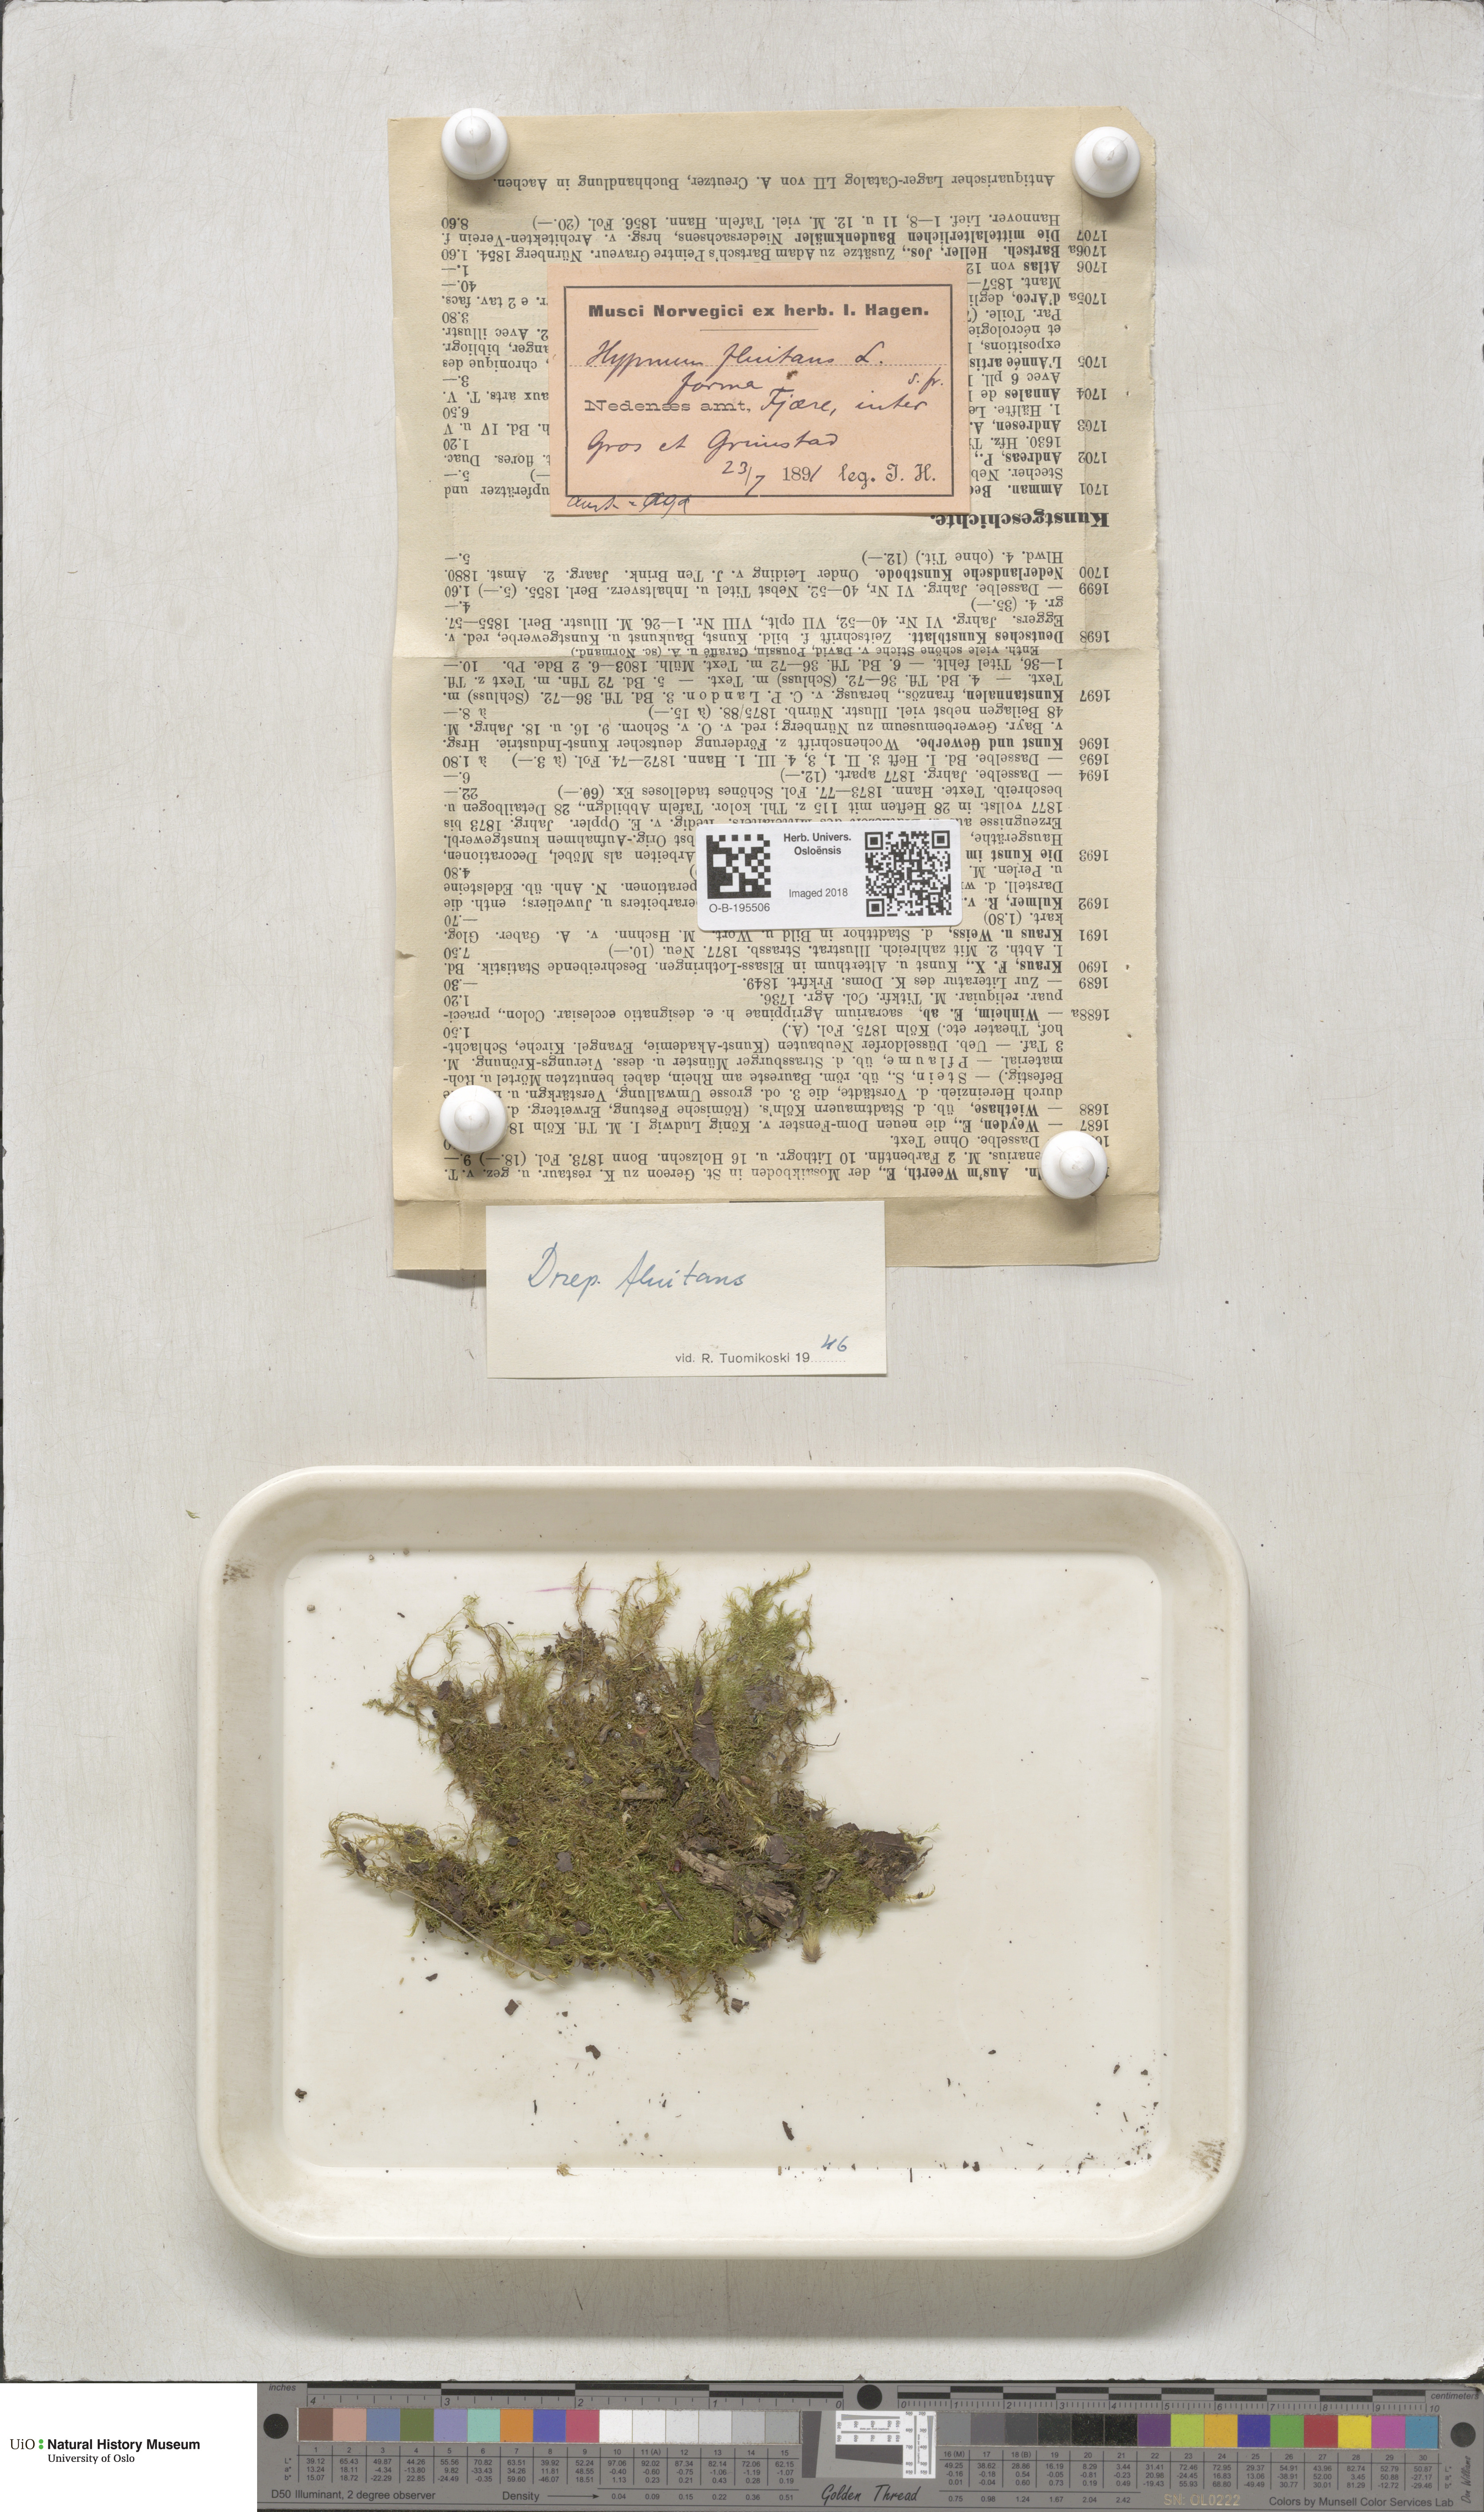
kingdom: Plantae
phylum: Bryophyta
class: Bryopsida
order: Hypnales
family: Calliergonaceae
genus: Warnstorfia
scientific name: Warnstorfia fluitans
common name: Floating hook moss
